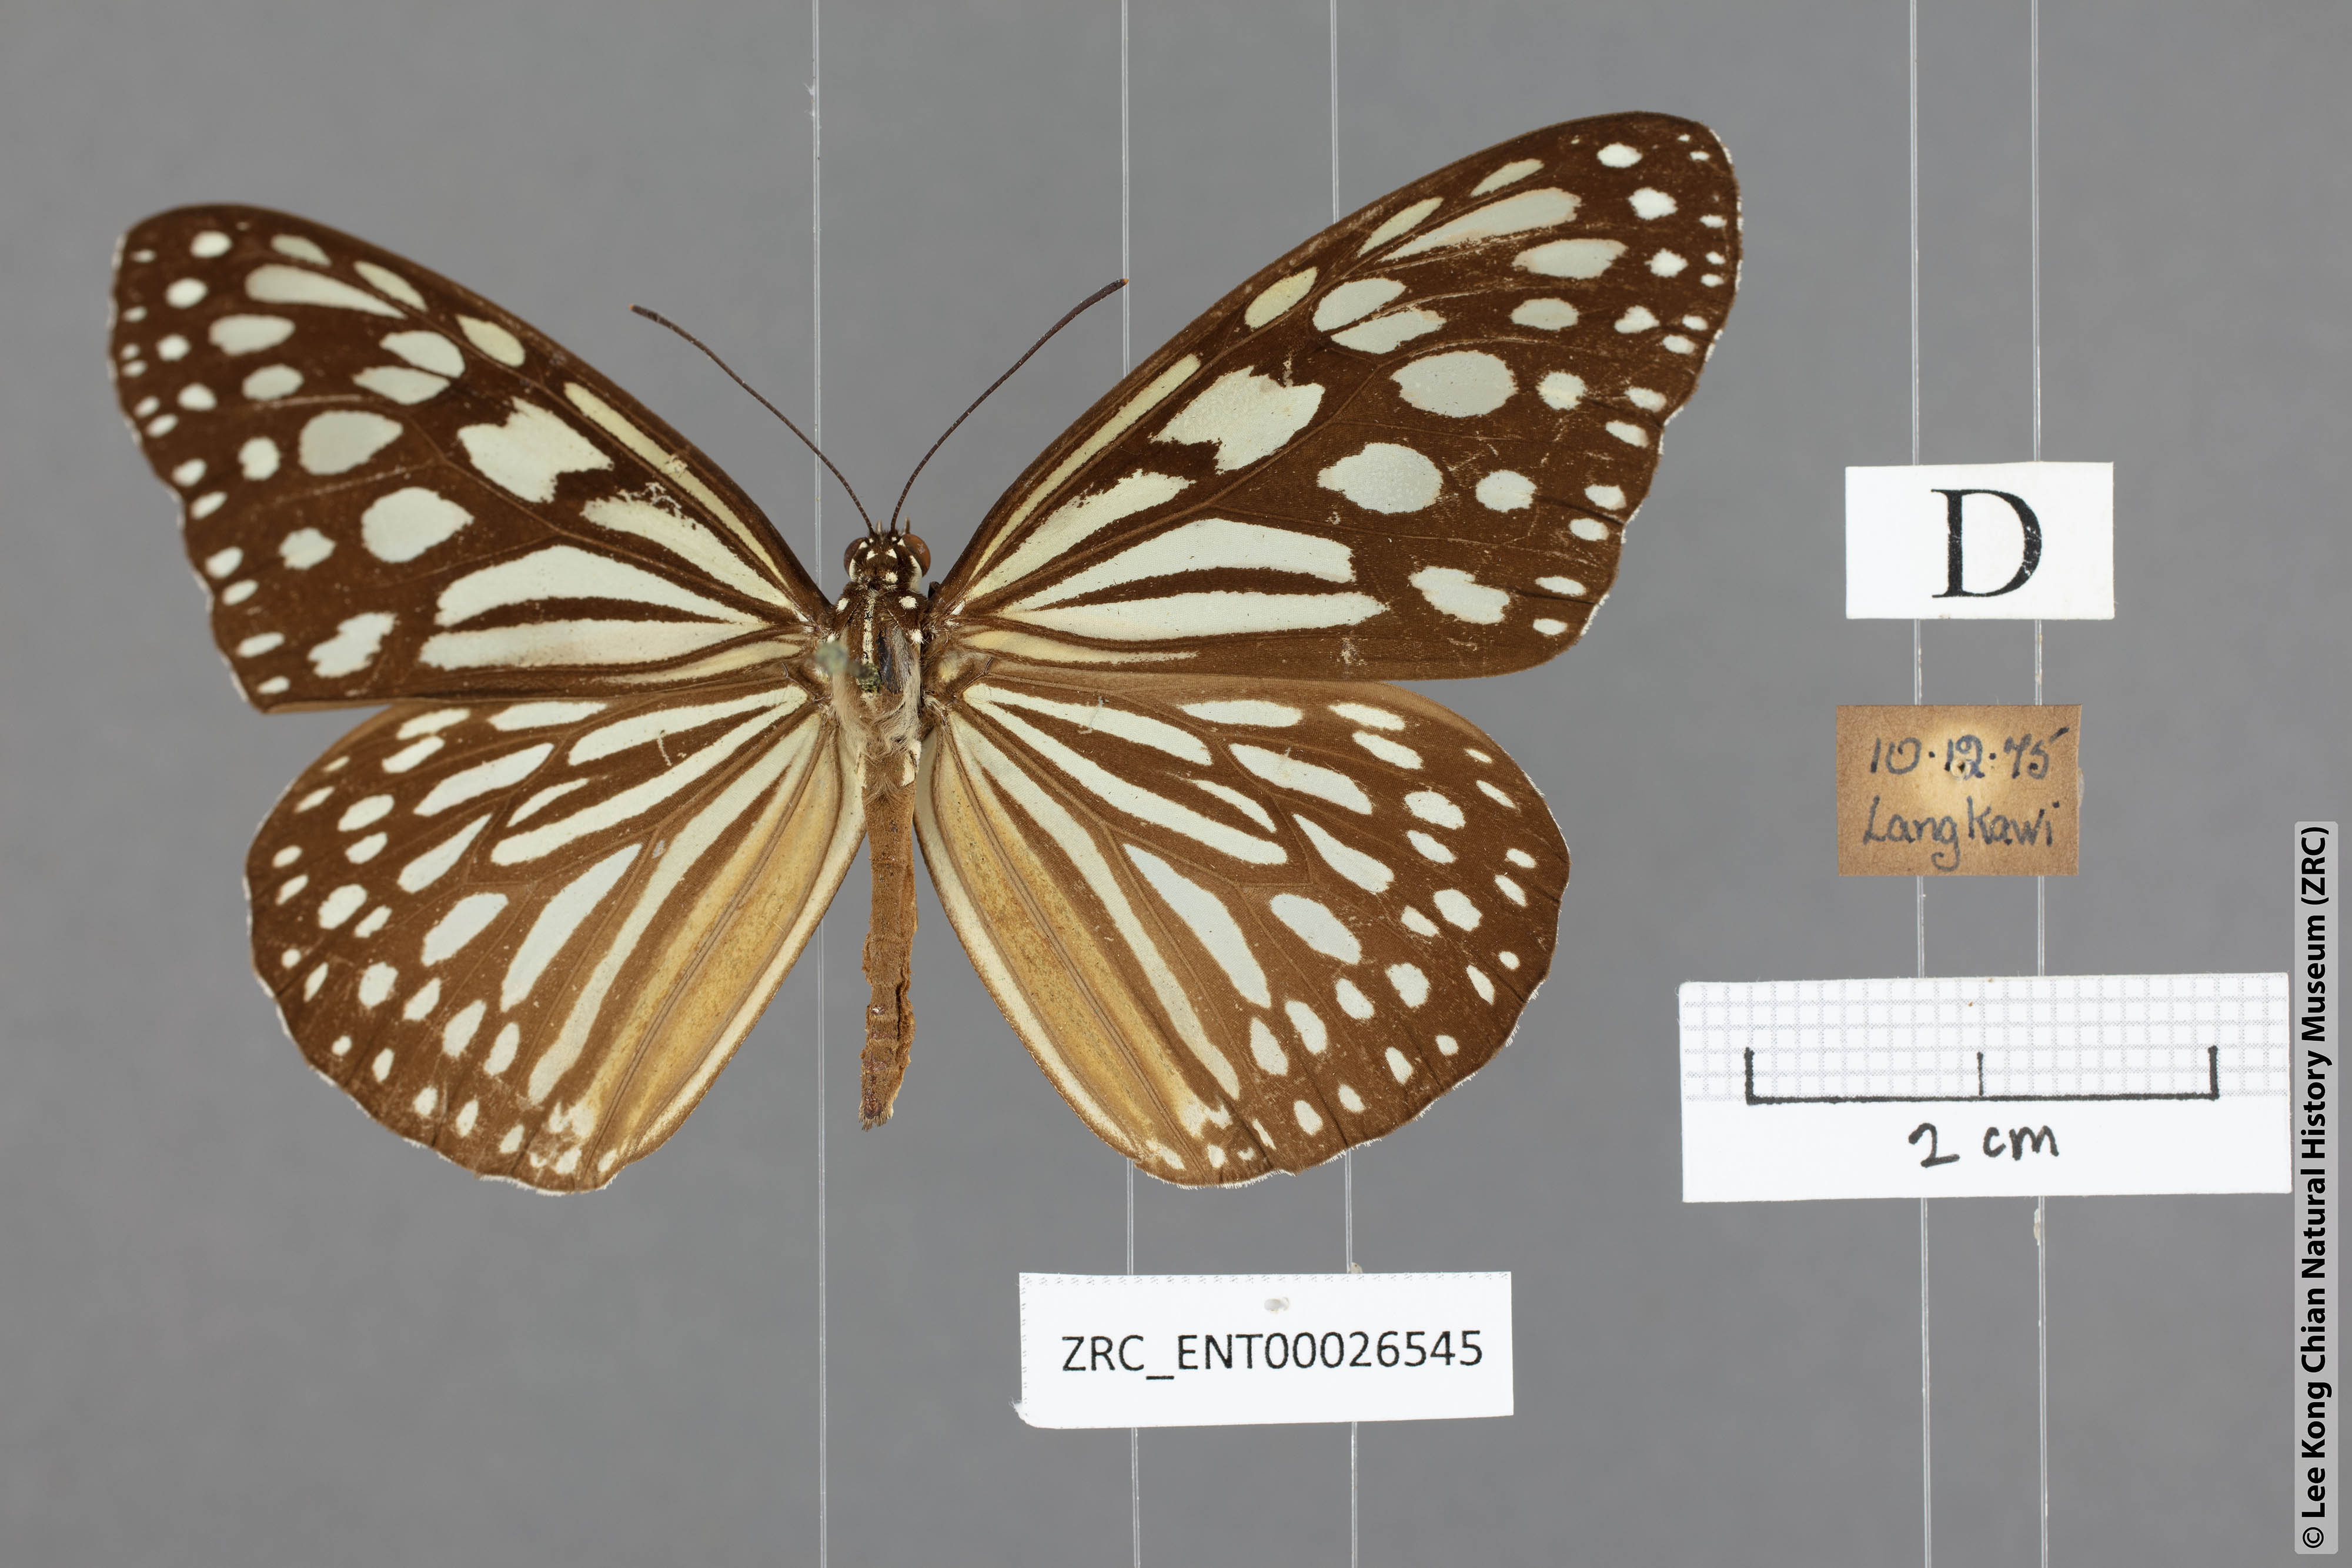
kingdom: Animalia
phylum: Arthropoda
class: Insecta
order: Lepidoptera
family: Nymphalidae
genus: Ideopsis
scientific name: Ideopsis similis
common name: Ceylon blue glassy tiger
